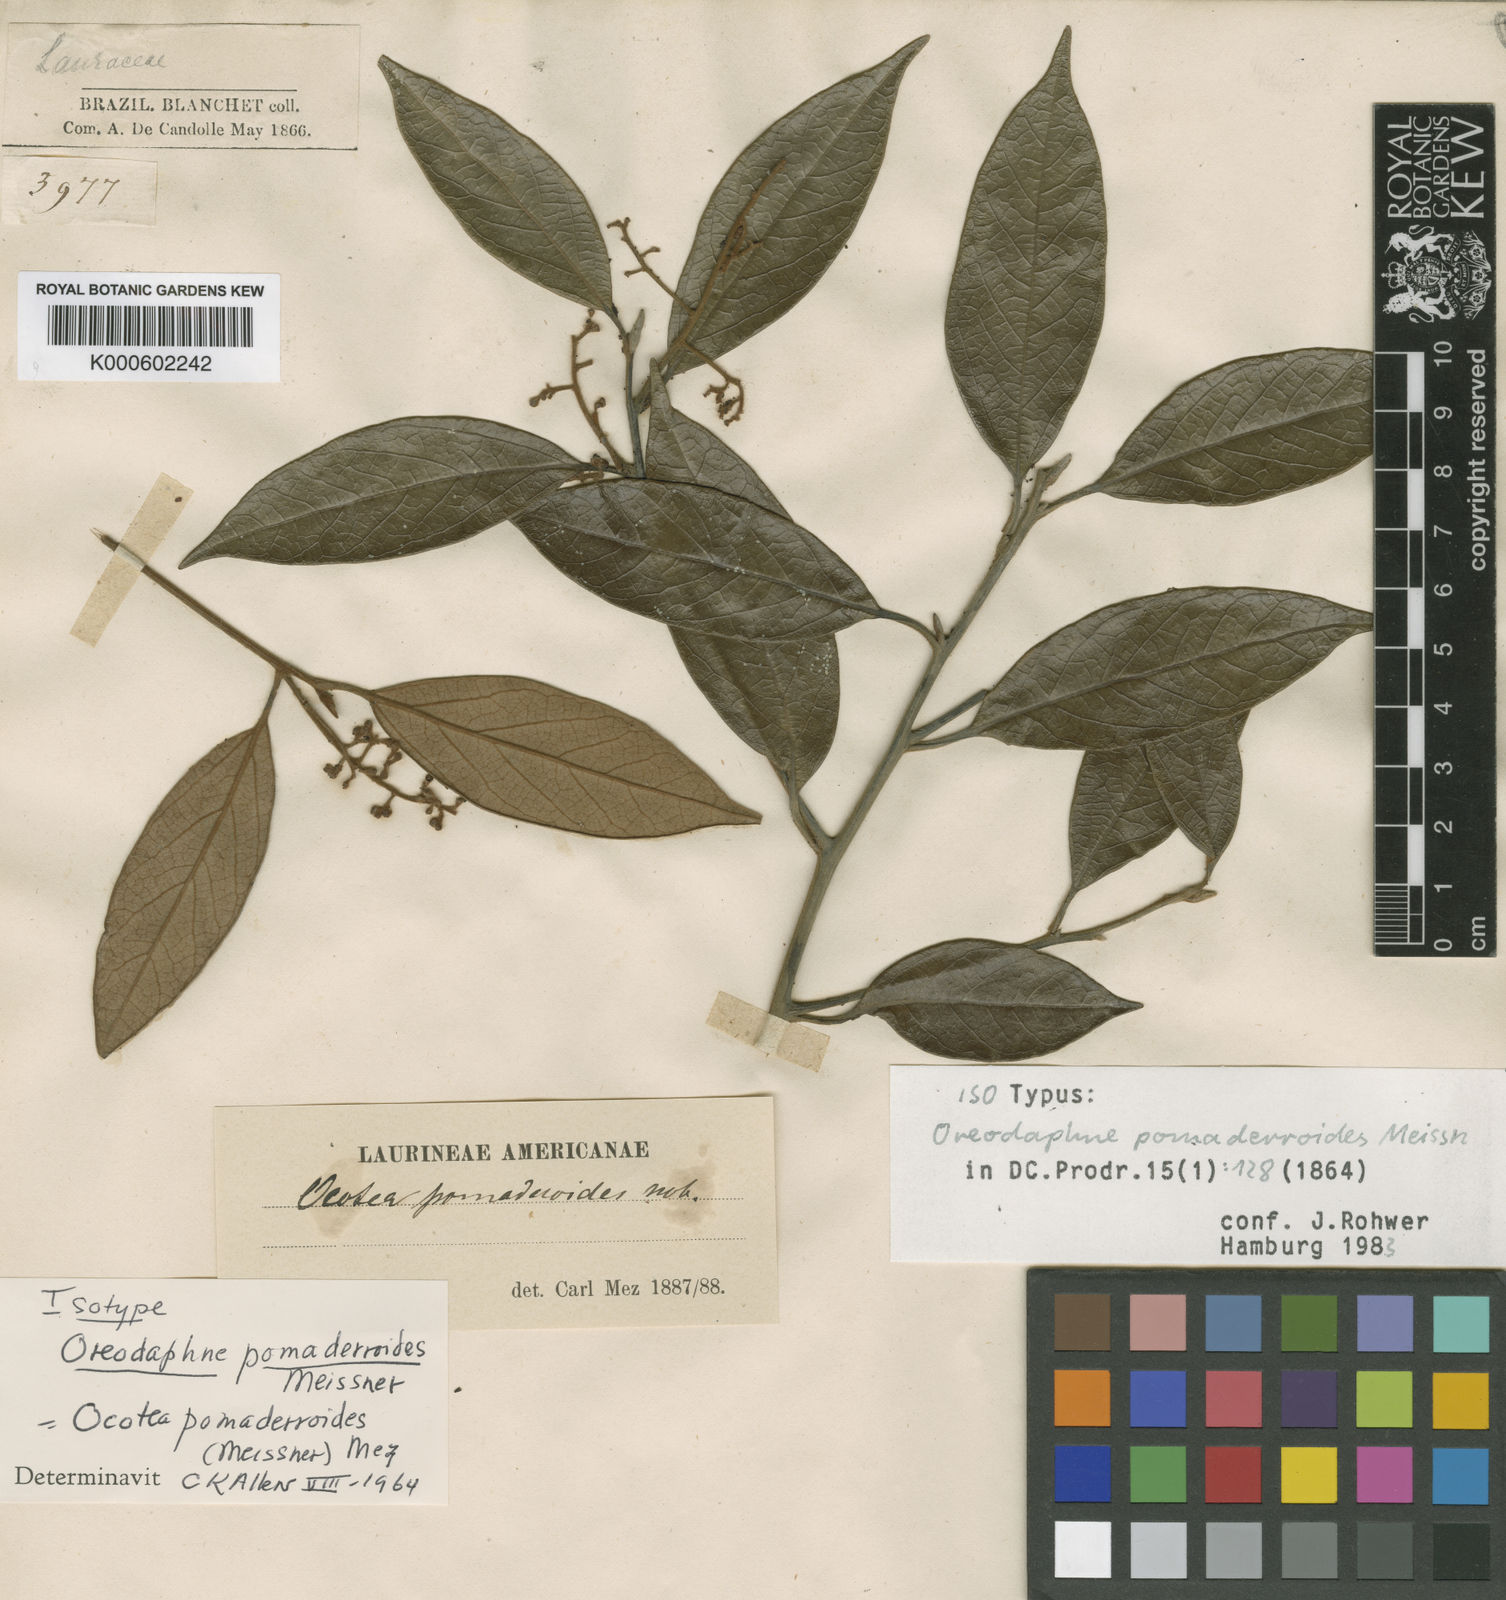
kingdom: Plantae
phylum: Tracheophyta
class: Magnoliopsida
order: Laurales
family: Lauraceae
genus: Ocotea
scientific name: Ocotea
